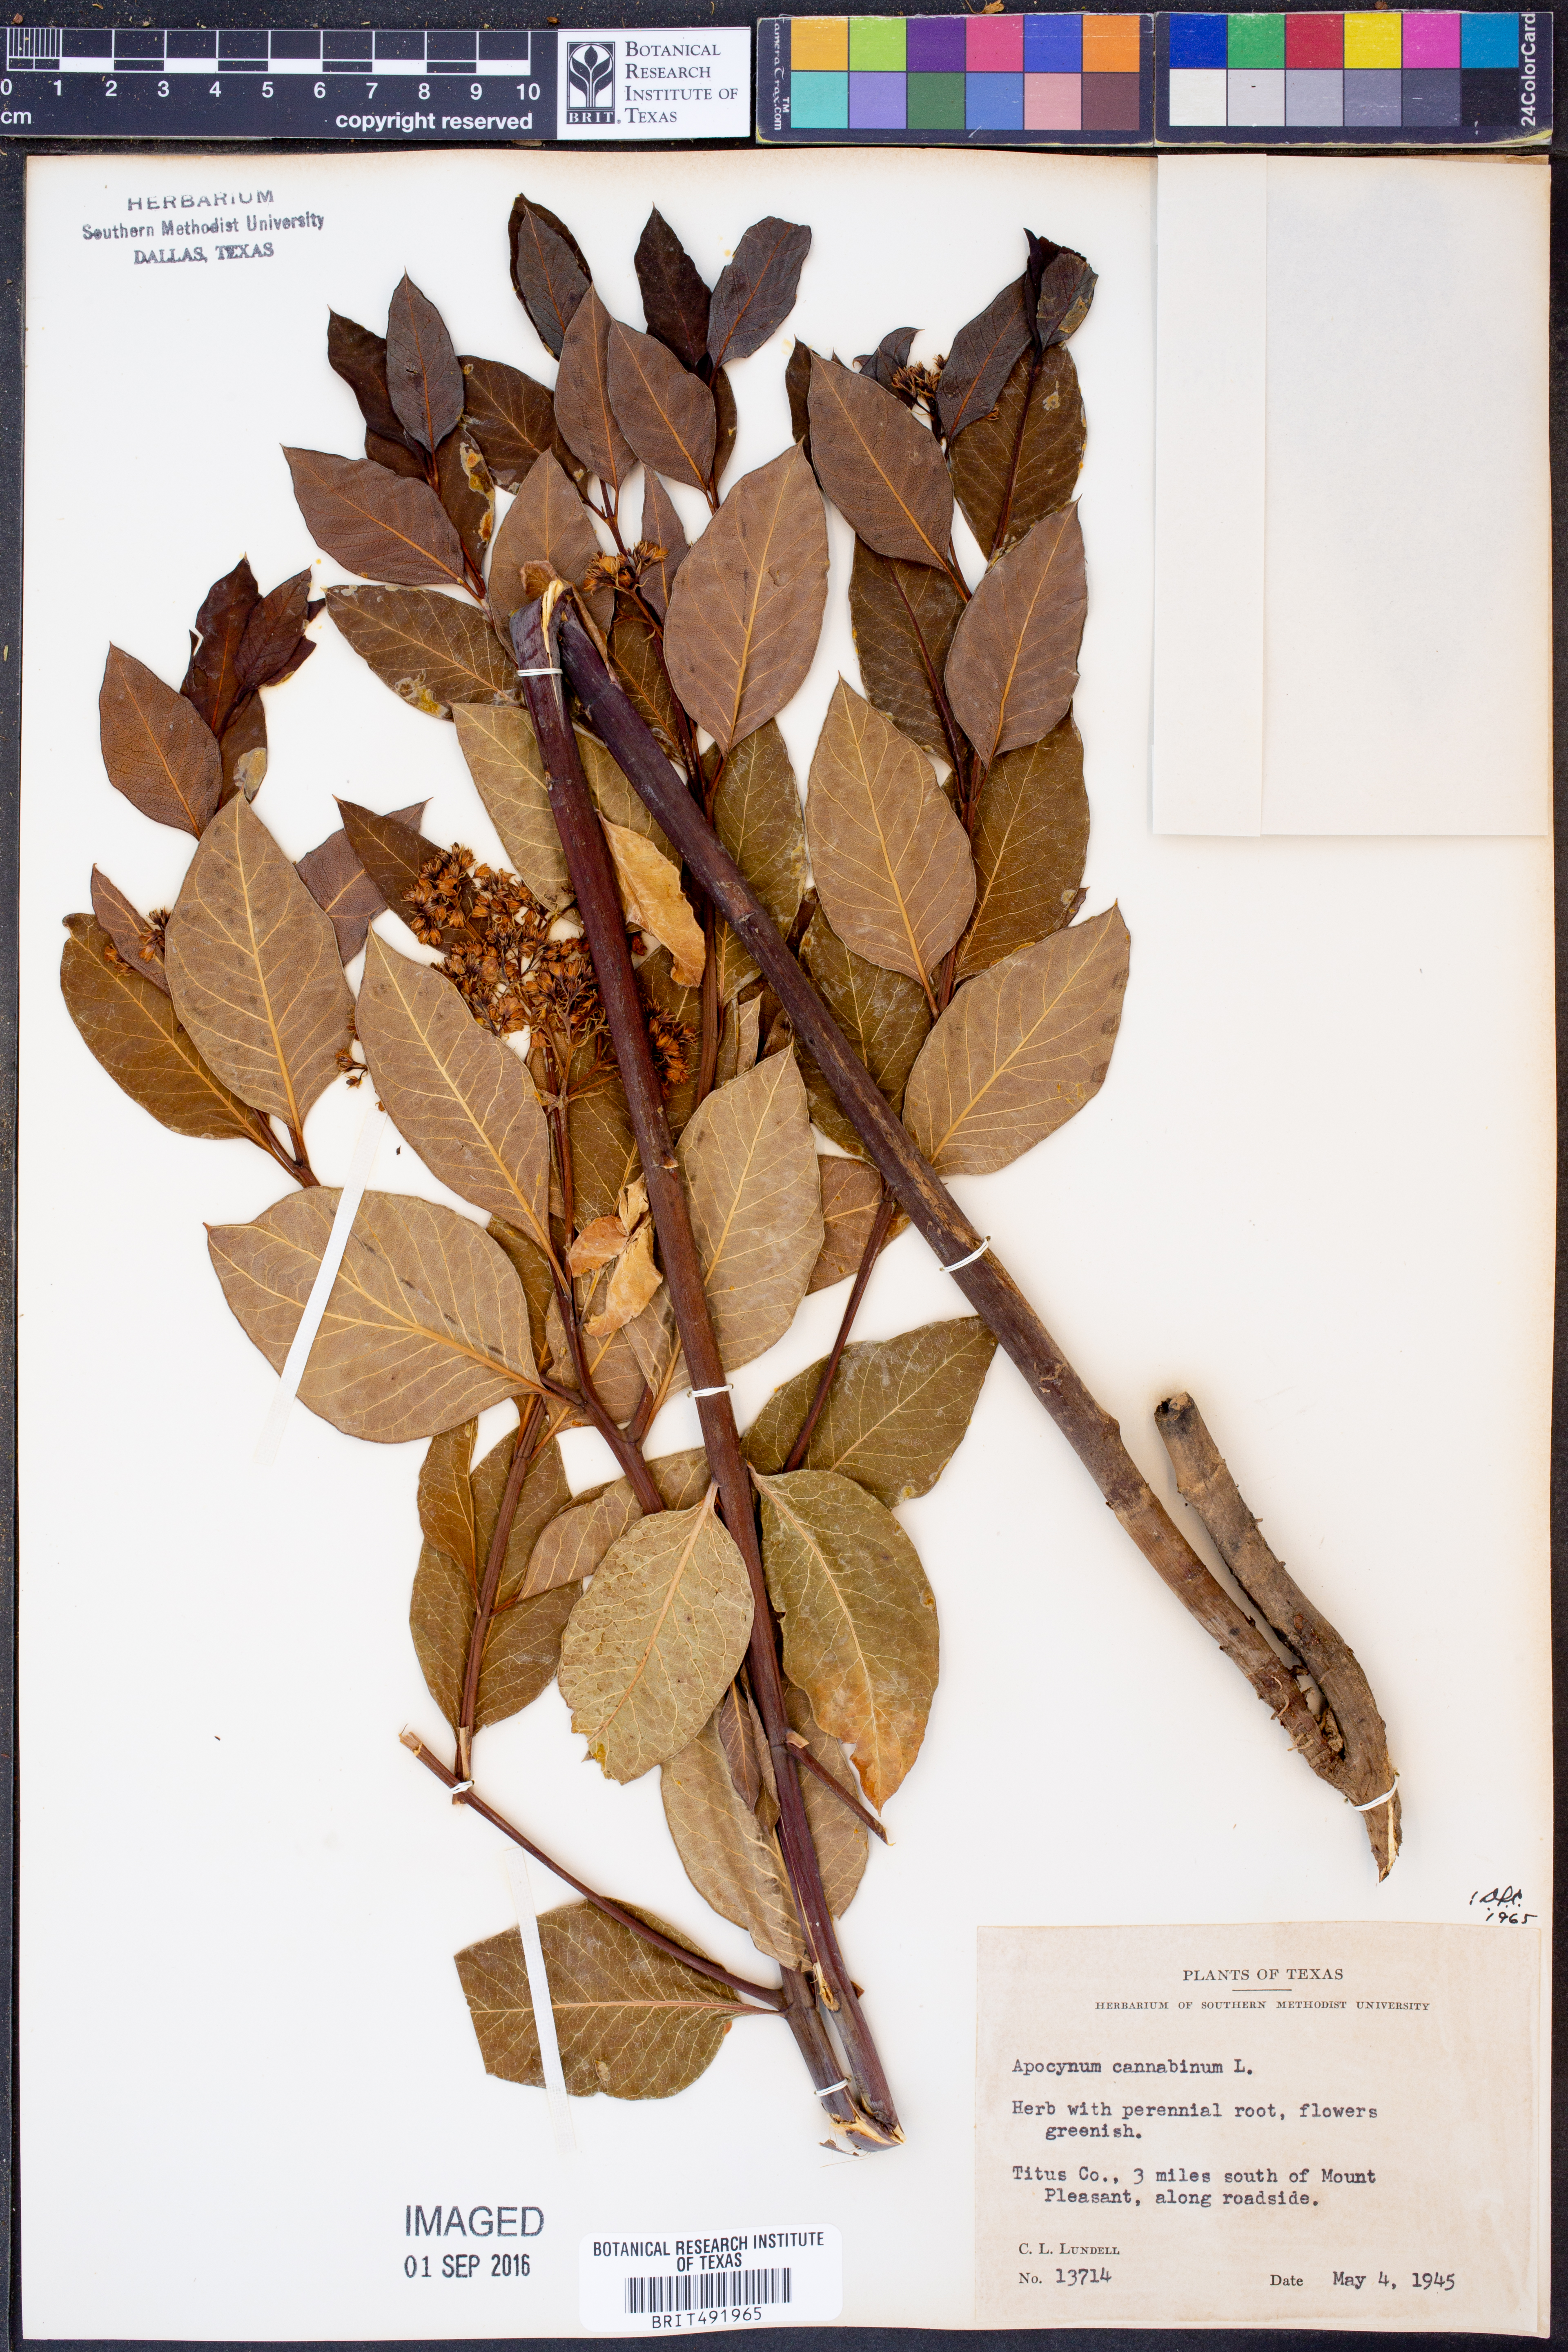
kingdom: Plantae
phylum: Tracheophyta
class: Magnoliopsida
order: Gentianales
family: Apocynaceae
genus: Apocynum
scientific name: Apocynum cannabinum
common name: Hemp dogbane
